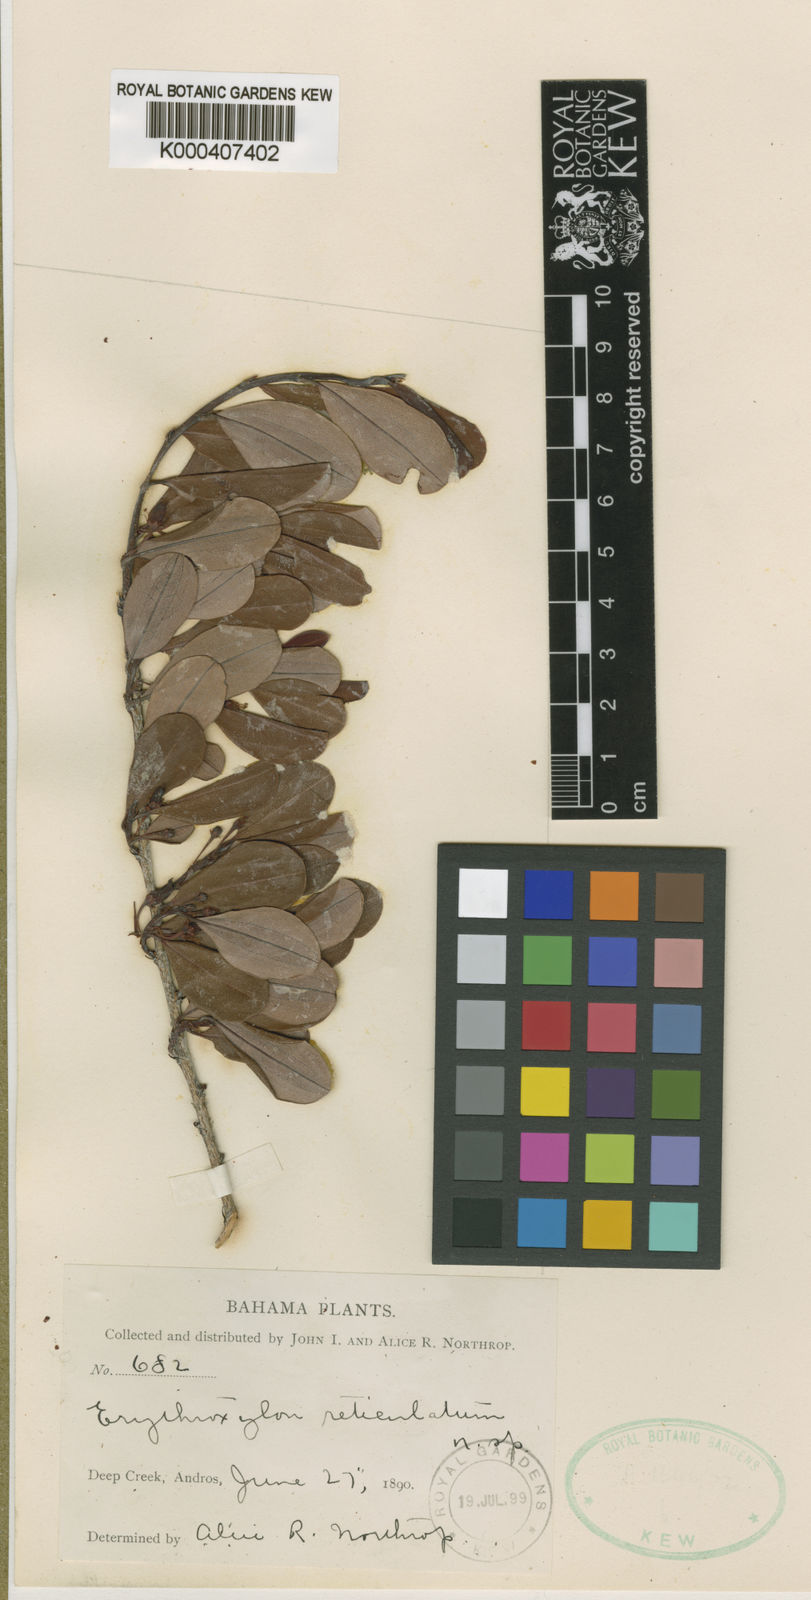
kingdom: Plantae
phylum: Tracheophyta
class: Magnoliopsida
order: Malpighiales
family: Erythroxylaceae
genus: Erythroxylum
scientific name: Erythroxylum reticulatum
